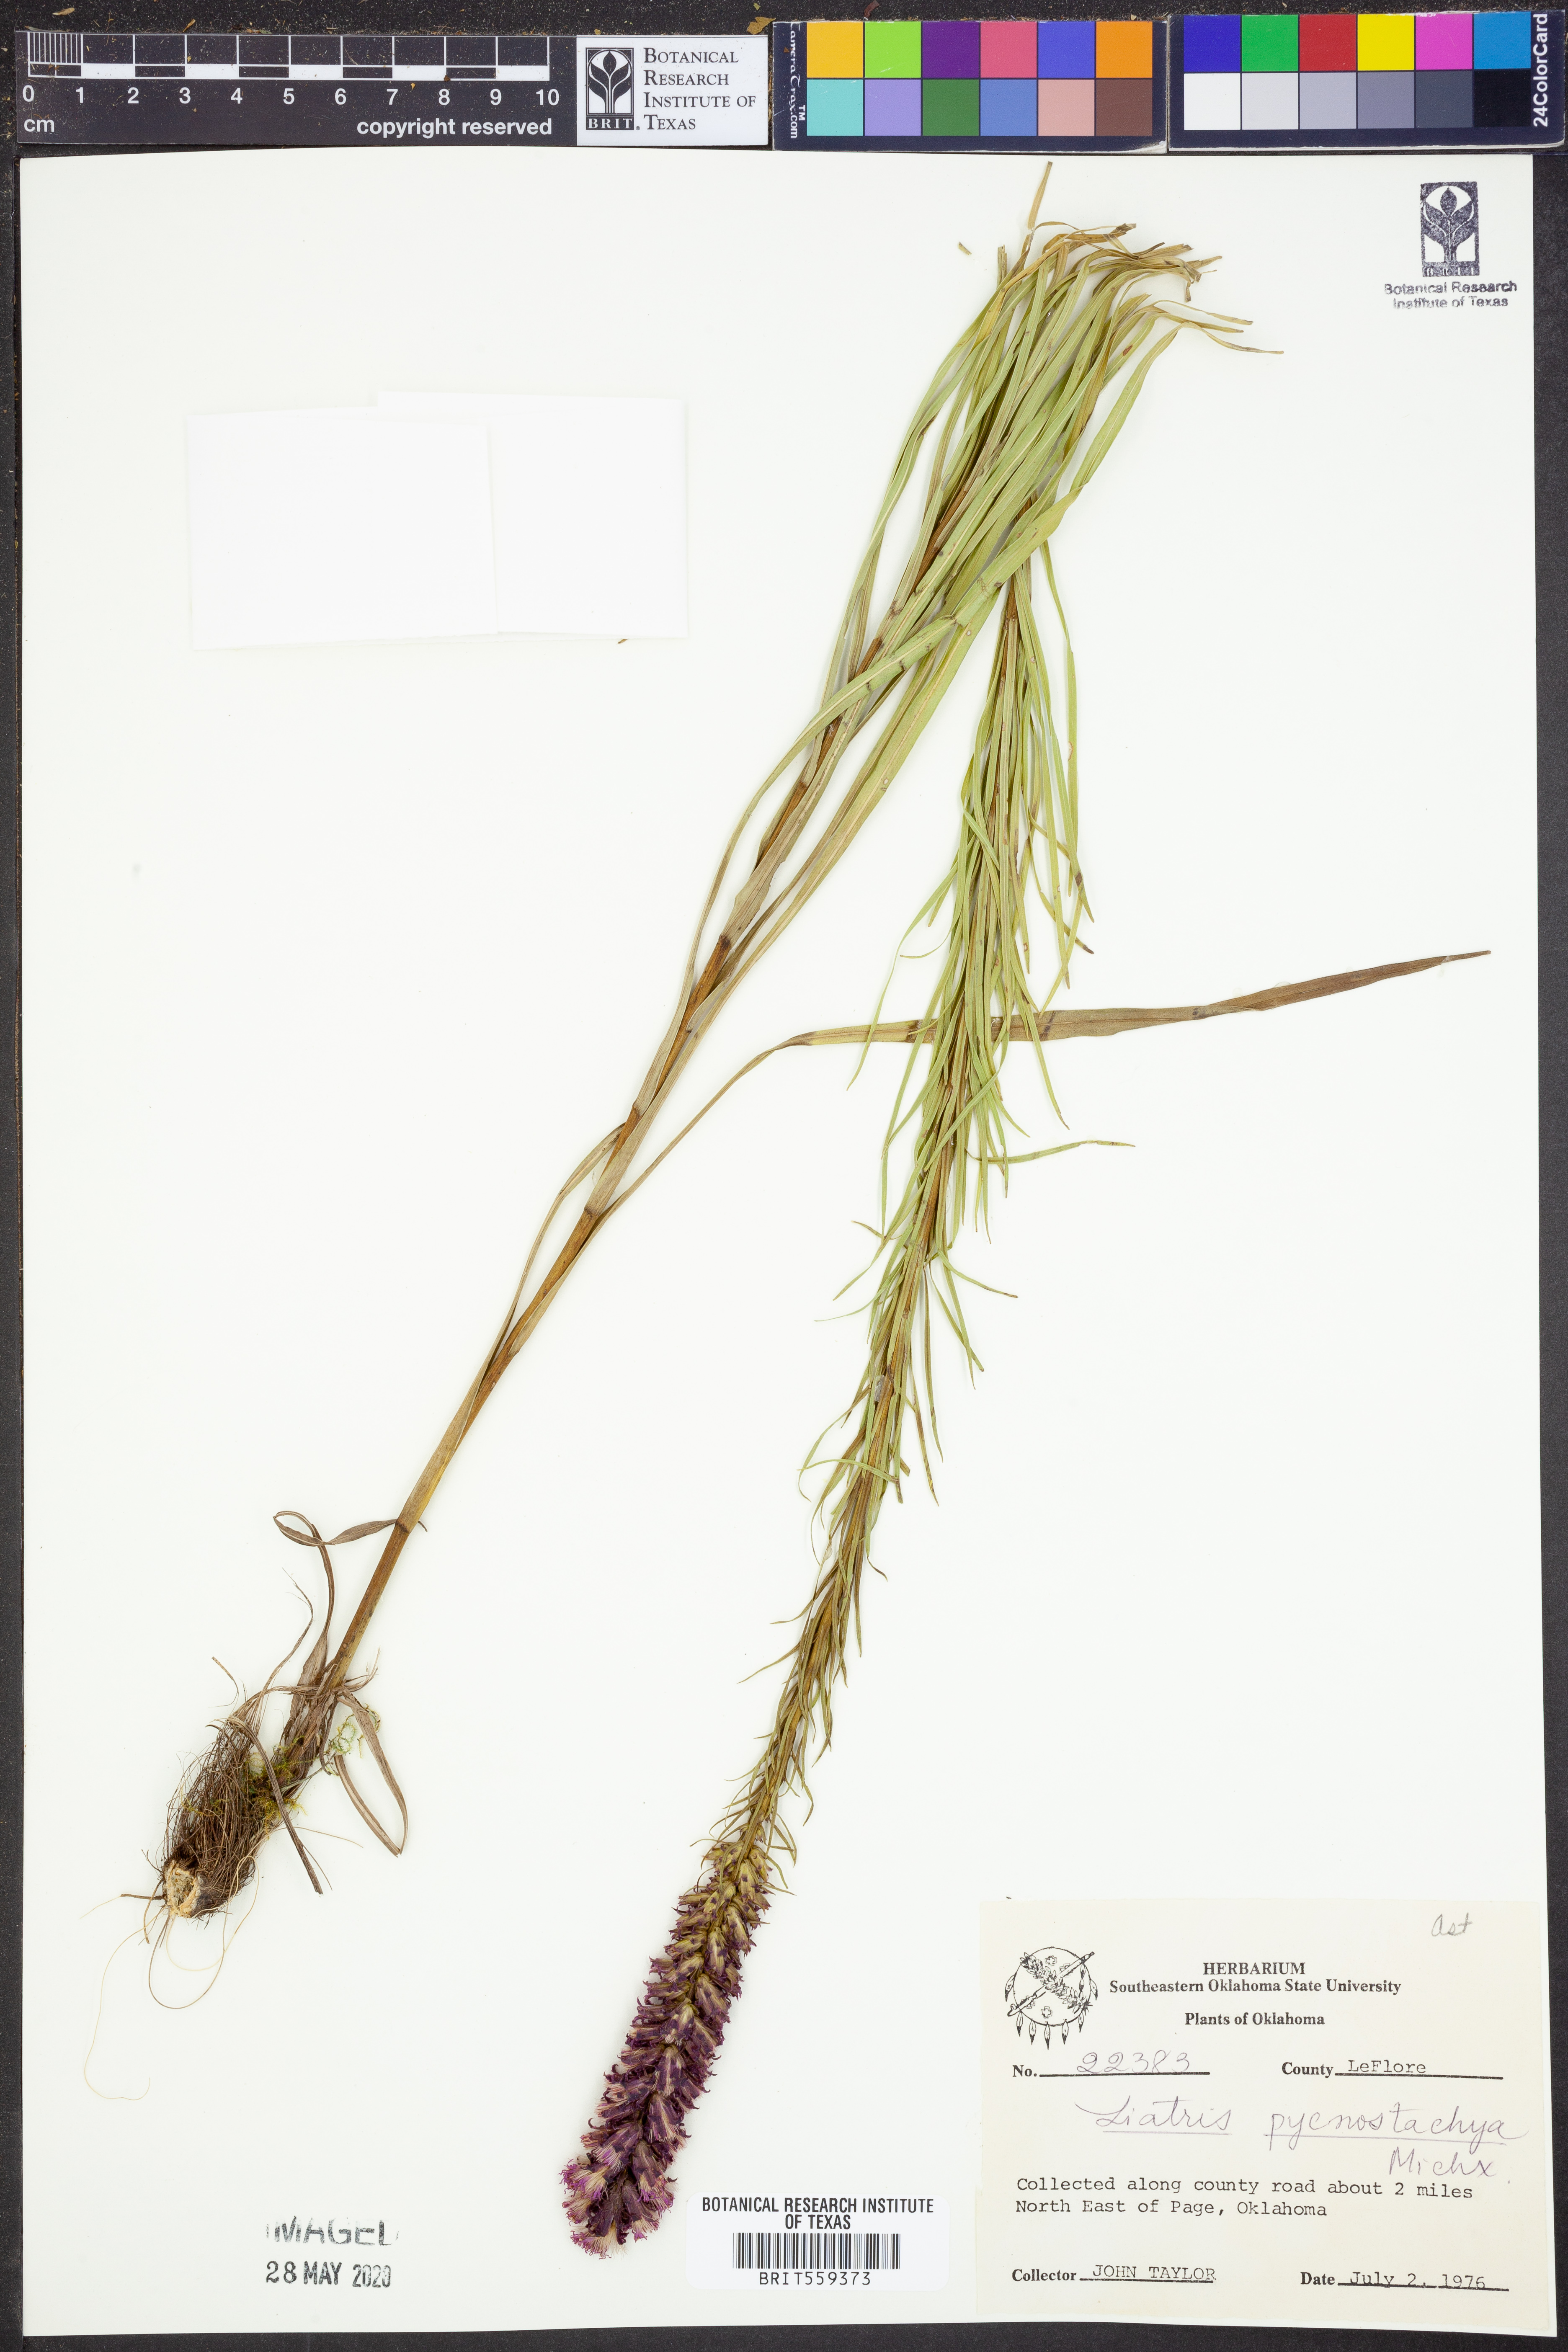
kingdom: Plantae
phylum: Tracheophyta
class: Magnoliopsida
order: Asterales
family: Asteraceae
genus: Liatris
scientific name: Liatris pycnostachya
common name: Cattail gayfeather
